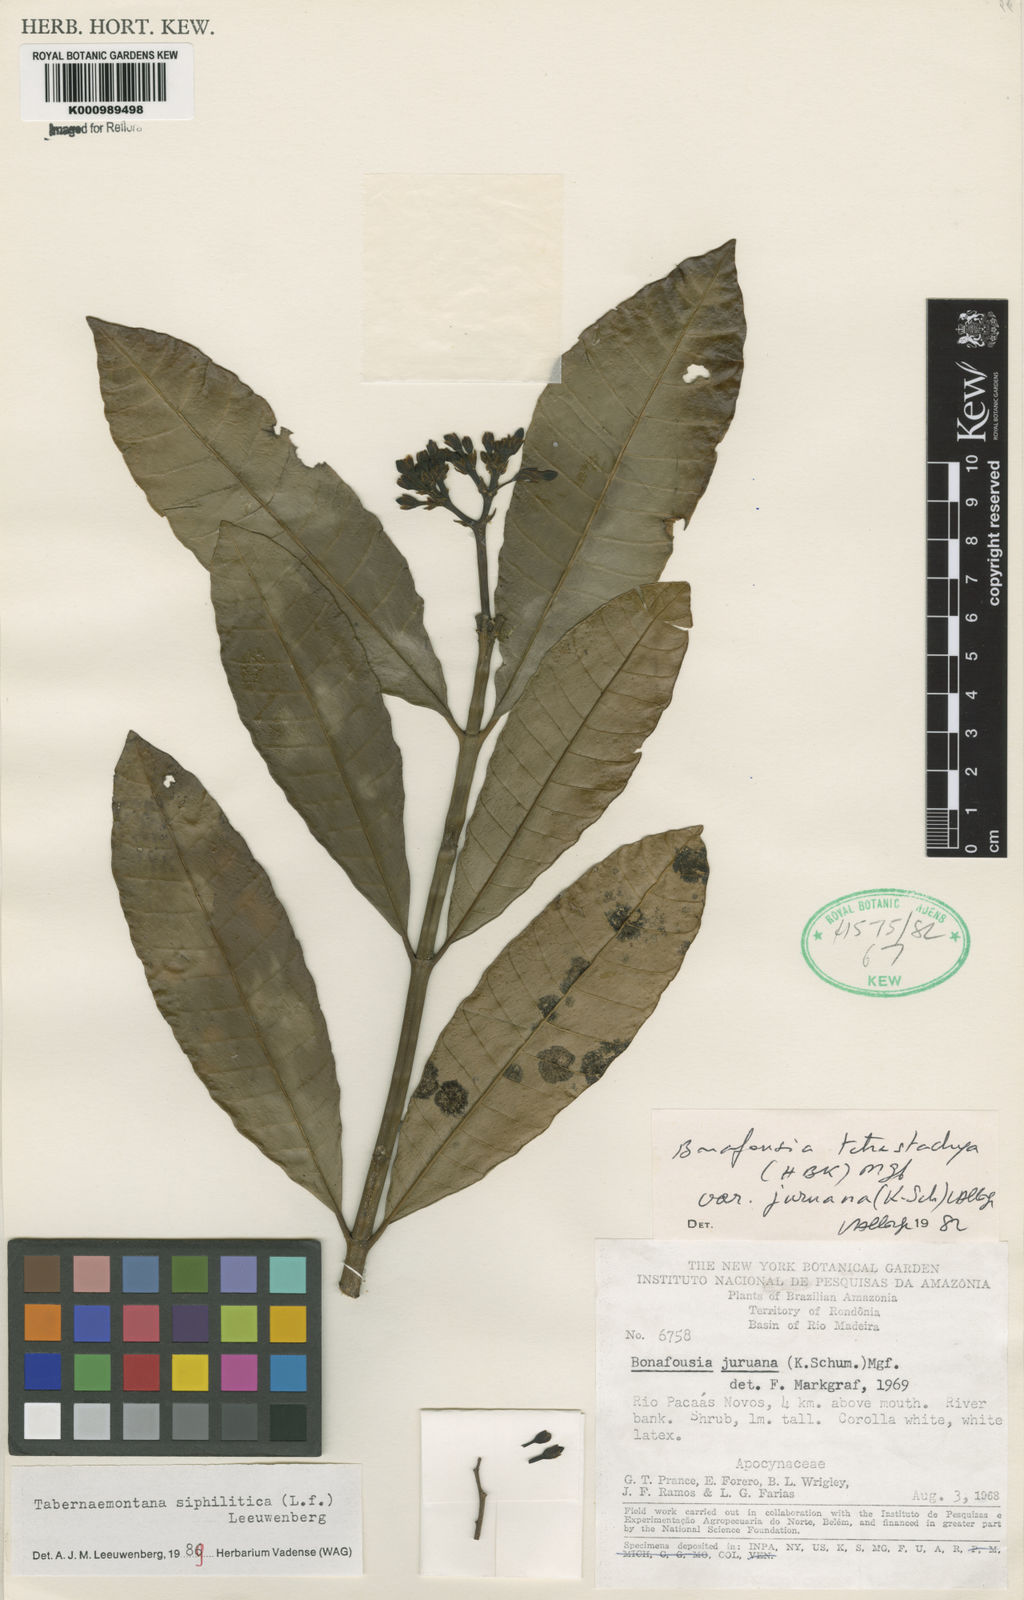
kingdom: Plantae
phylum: Tracheophyta
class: Magnoliopsida
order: Gentianales
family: Apocynaceae
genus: Tabernaemontana
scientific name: Tabernaemontana siphilitica
